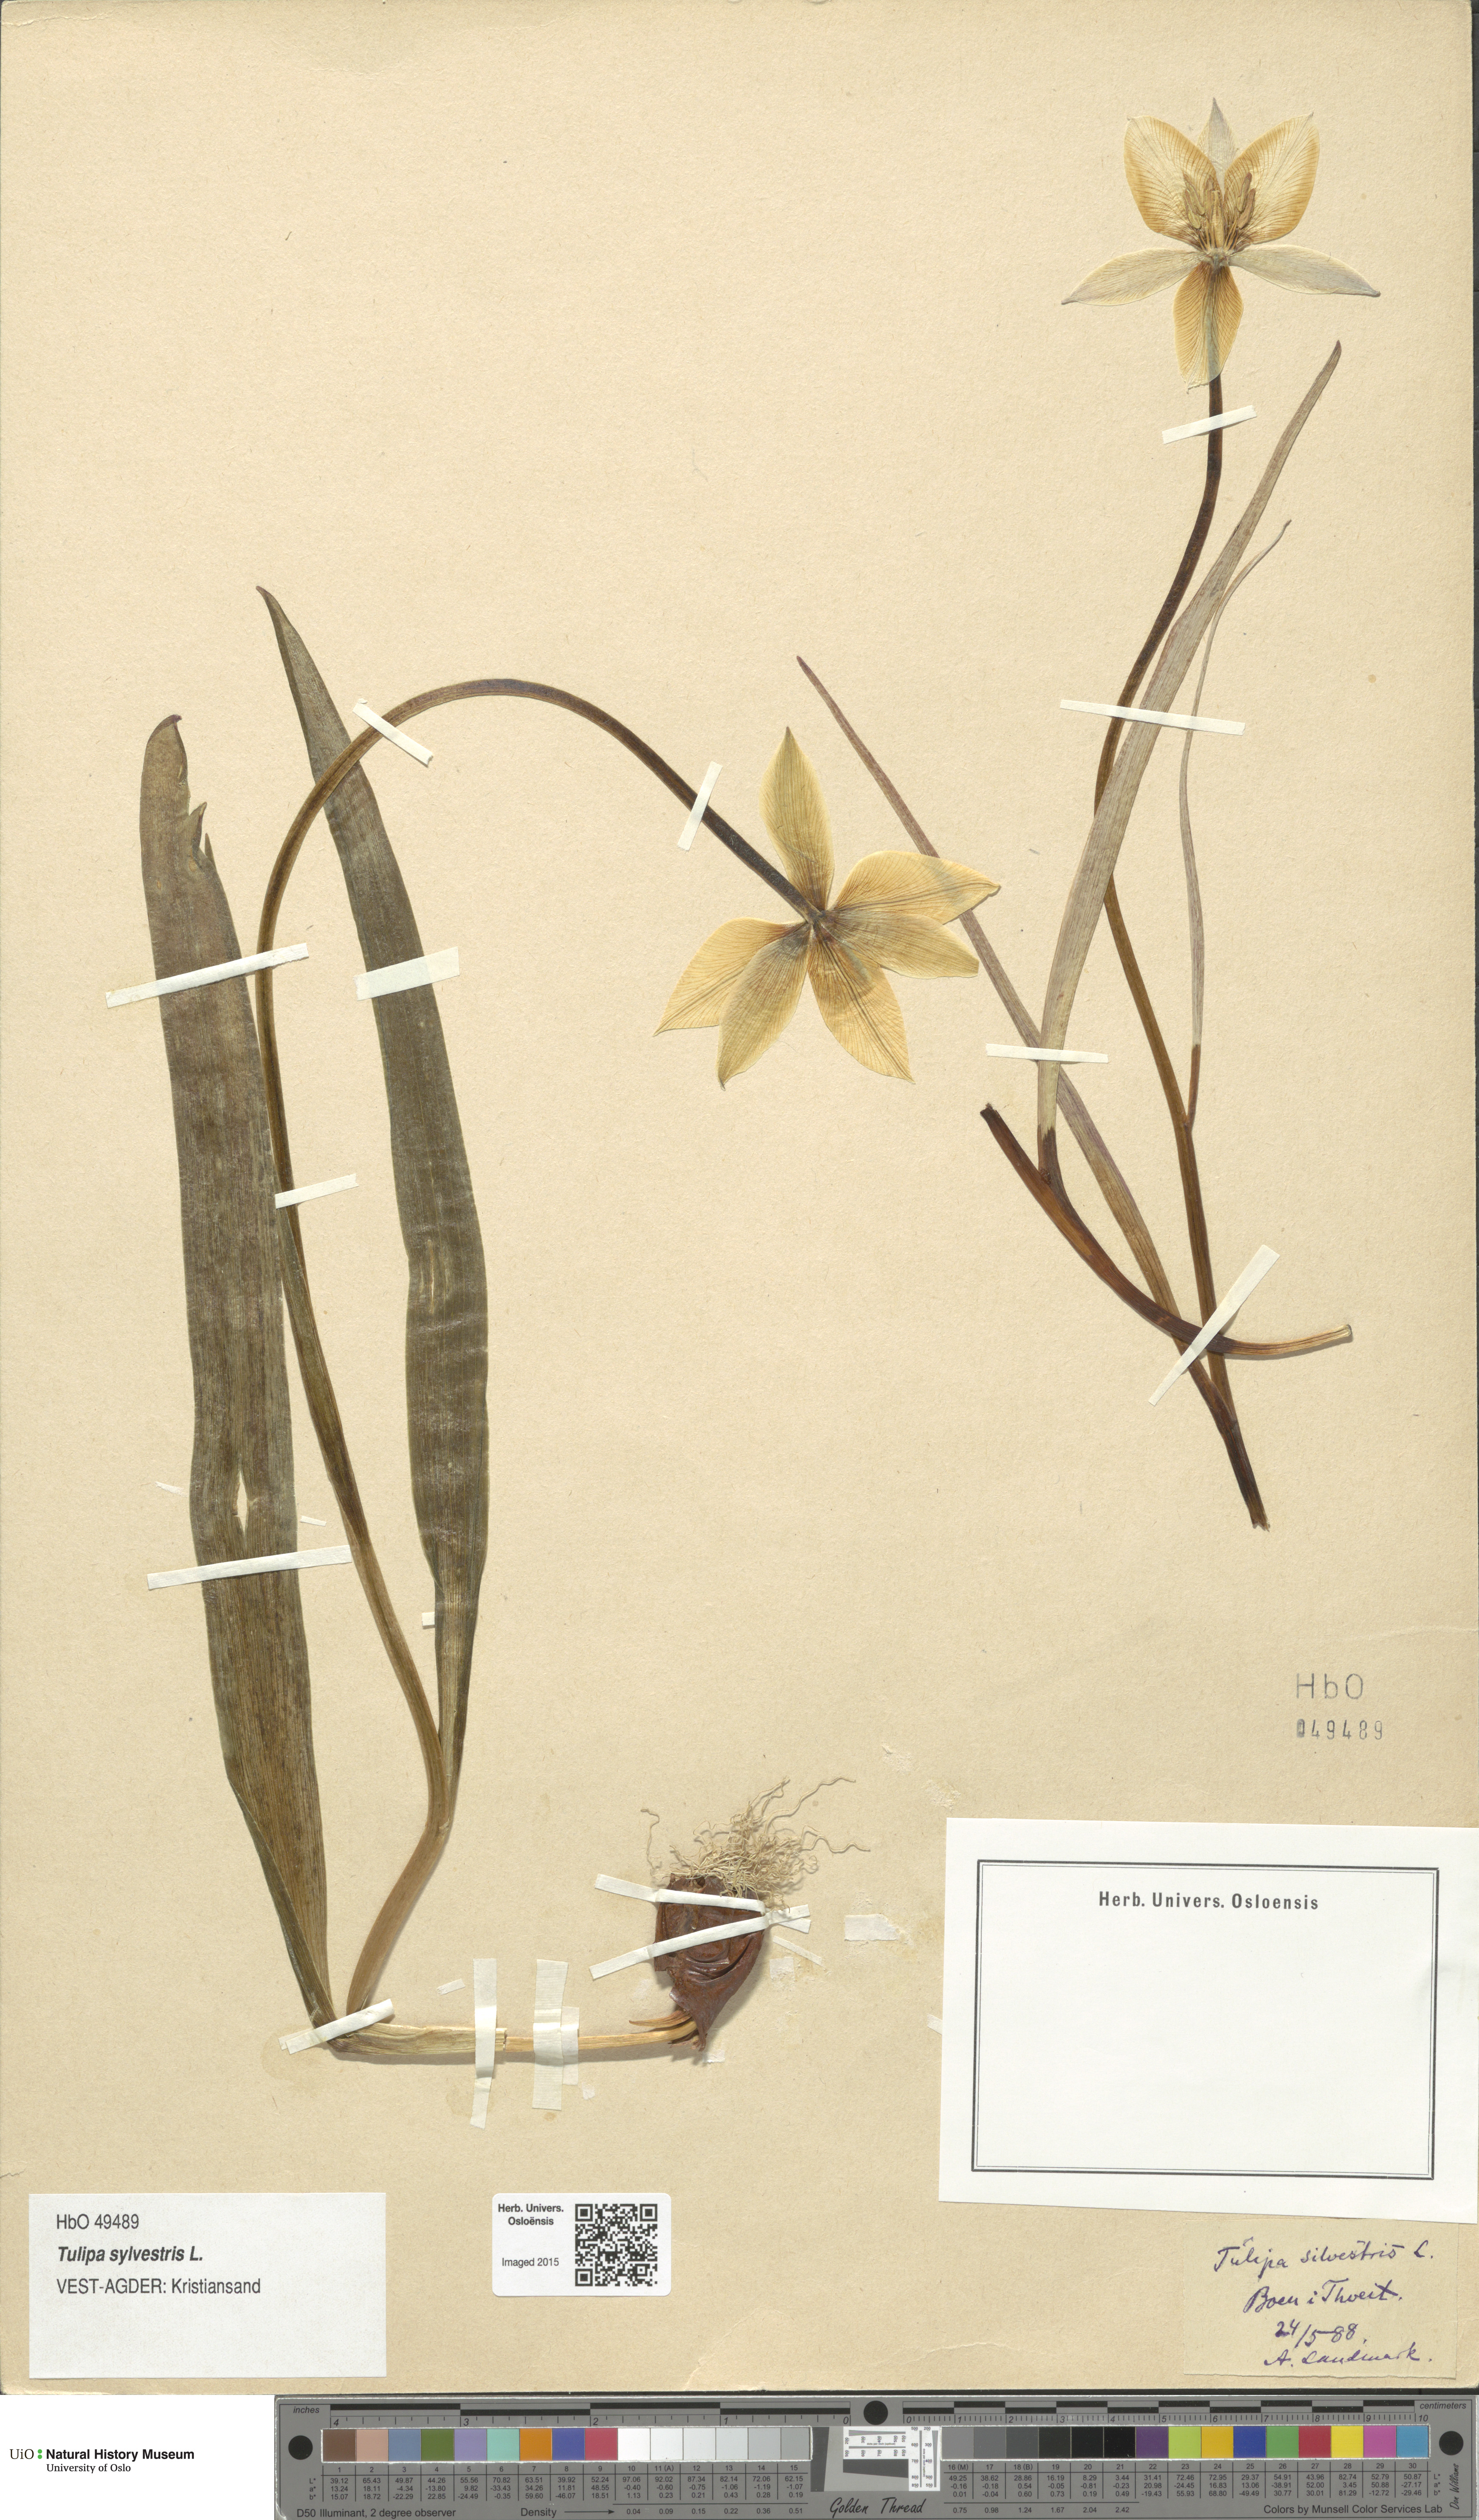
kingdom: Plantae
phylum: Tracheophyta
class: Liliopsida
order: Liliales
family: Liliaceae
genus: Tulipa
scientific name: Tulipa sylvestris
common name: Wild tulip
